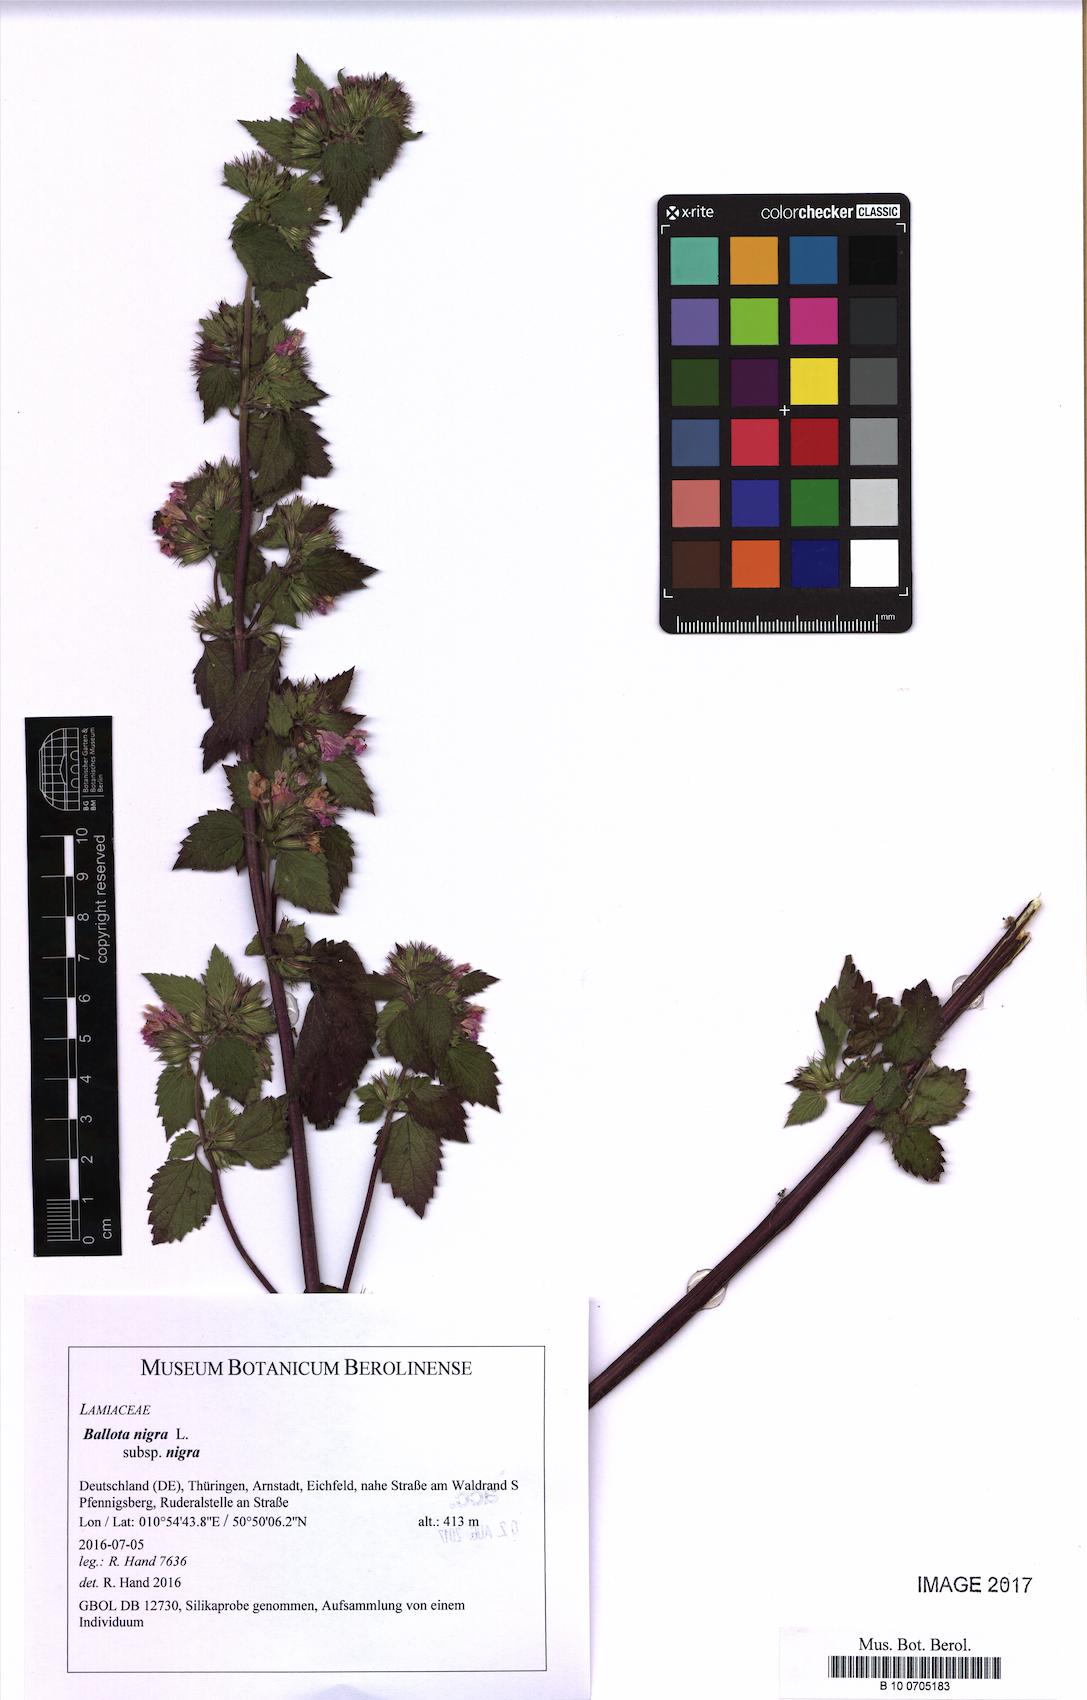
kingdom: Plantae
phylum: Tracheophyta
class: Magnoliopsida
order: Lamiales
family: Lamiaceae
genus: Ballota
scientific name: Ballota nigra
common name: Black horehound
